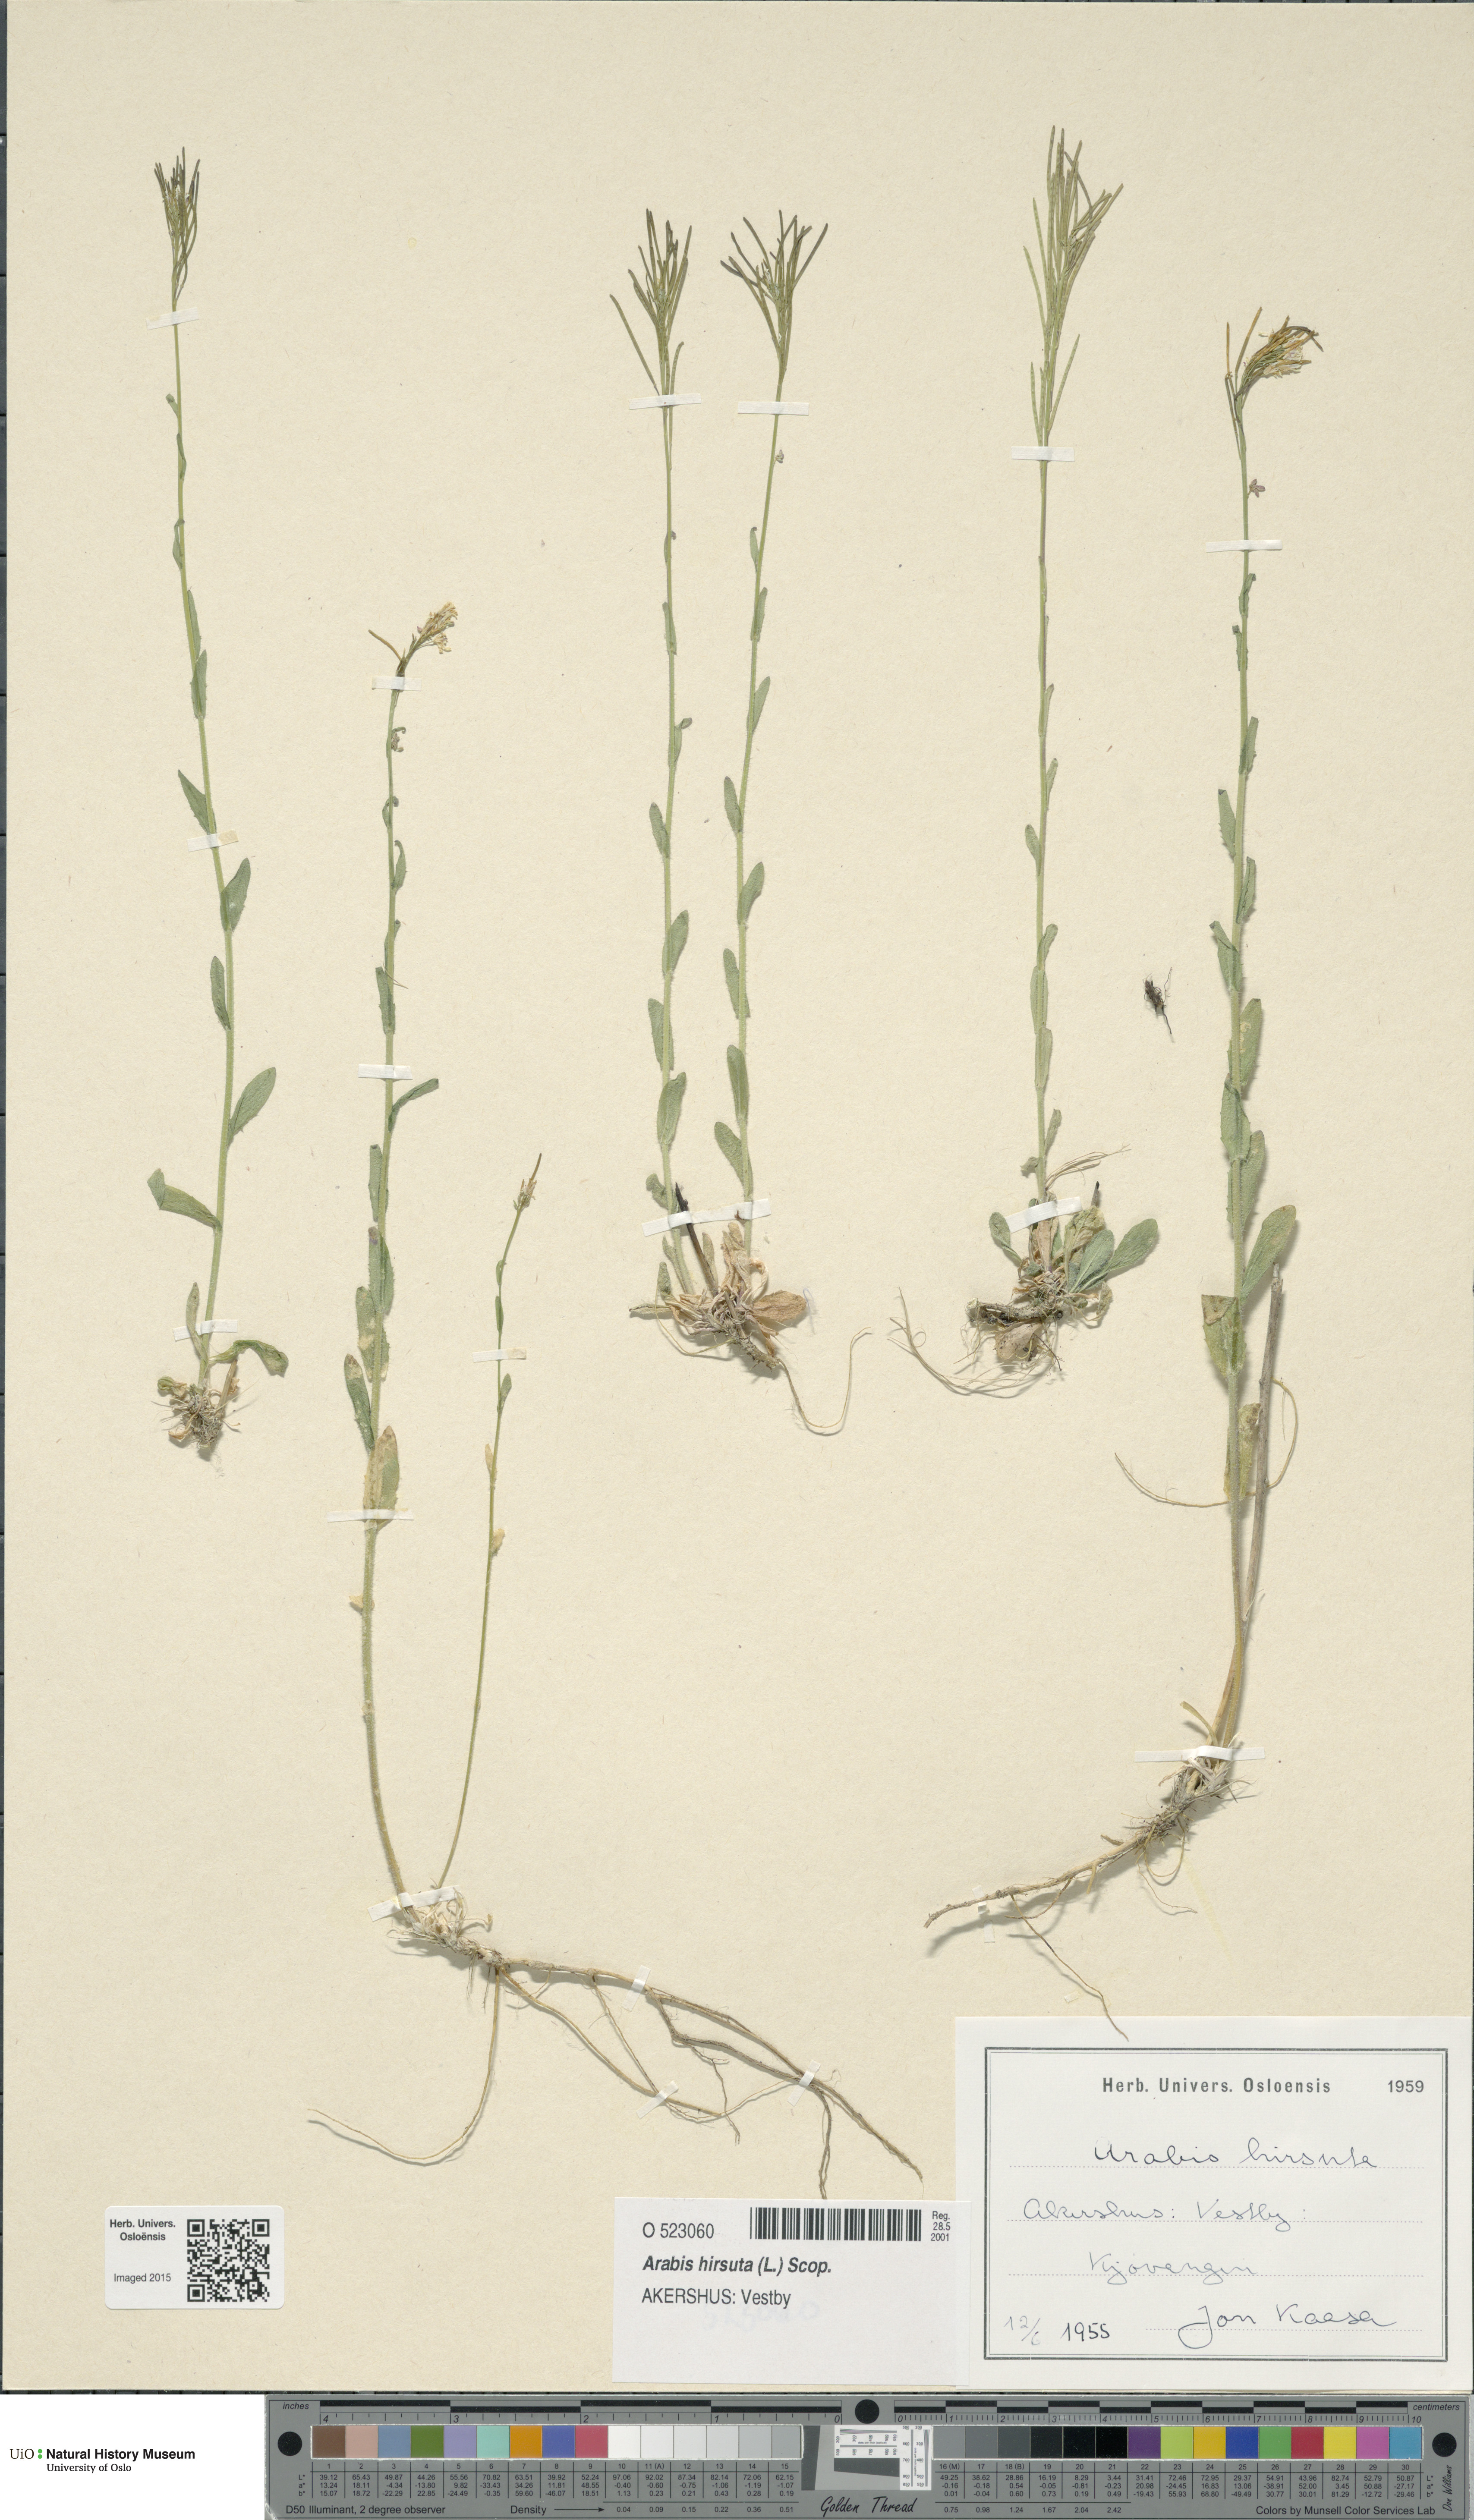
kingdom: Plantae
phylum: Tracheophyta
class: Magnoliopsida
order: Brassicales
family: Brassicaceae
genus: Arabis
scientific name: Arabis hirsuta
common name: Hairy rock-cress
